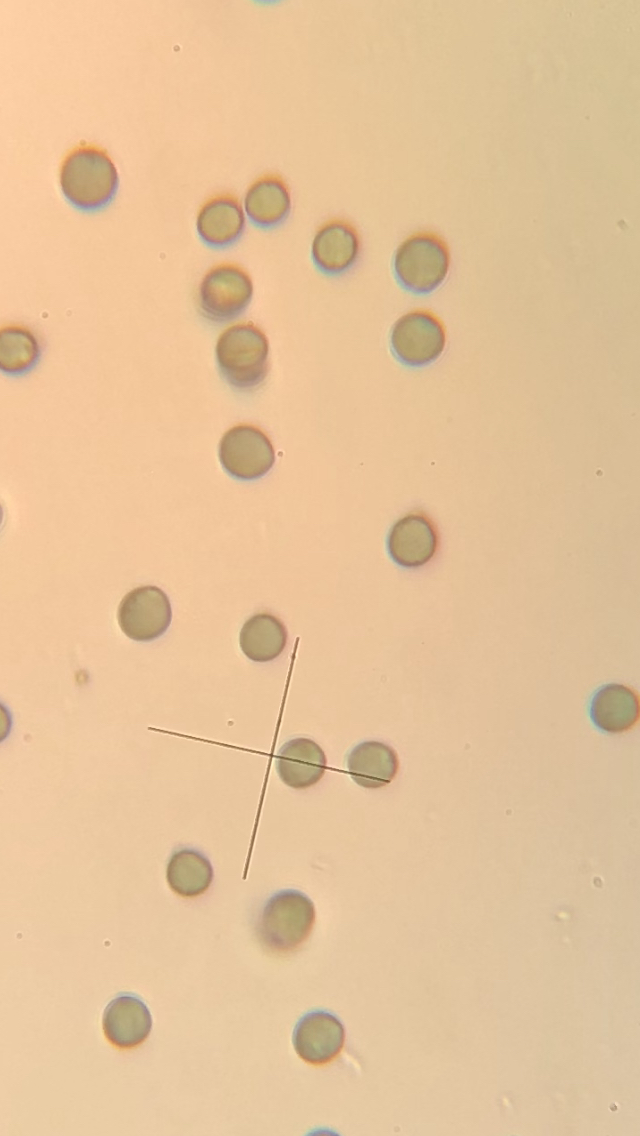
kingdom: Fungi
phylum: Basidiomycota
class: Agaricomycetes
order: Agaricales
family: Marasmiaceae
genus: Pleurocybella
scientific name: Pleurocybella porrigens
